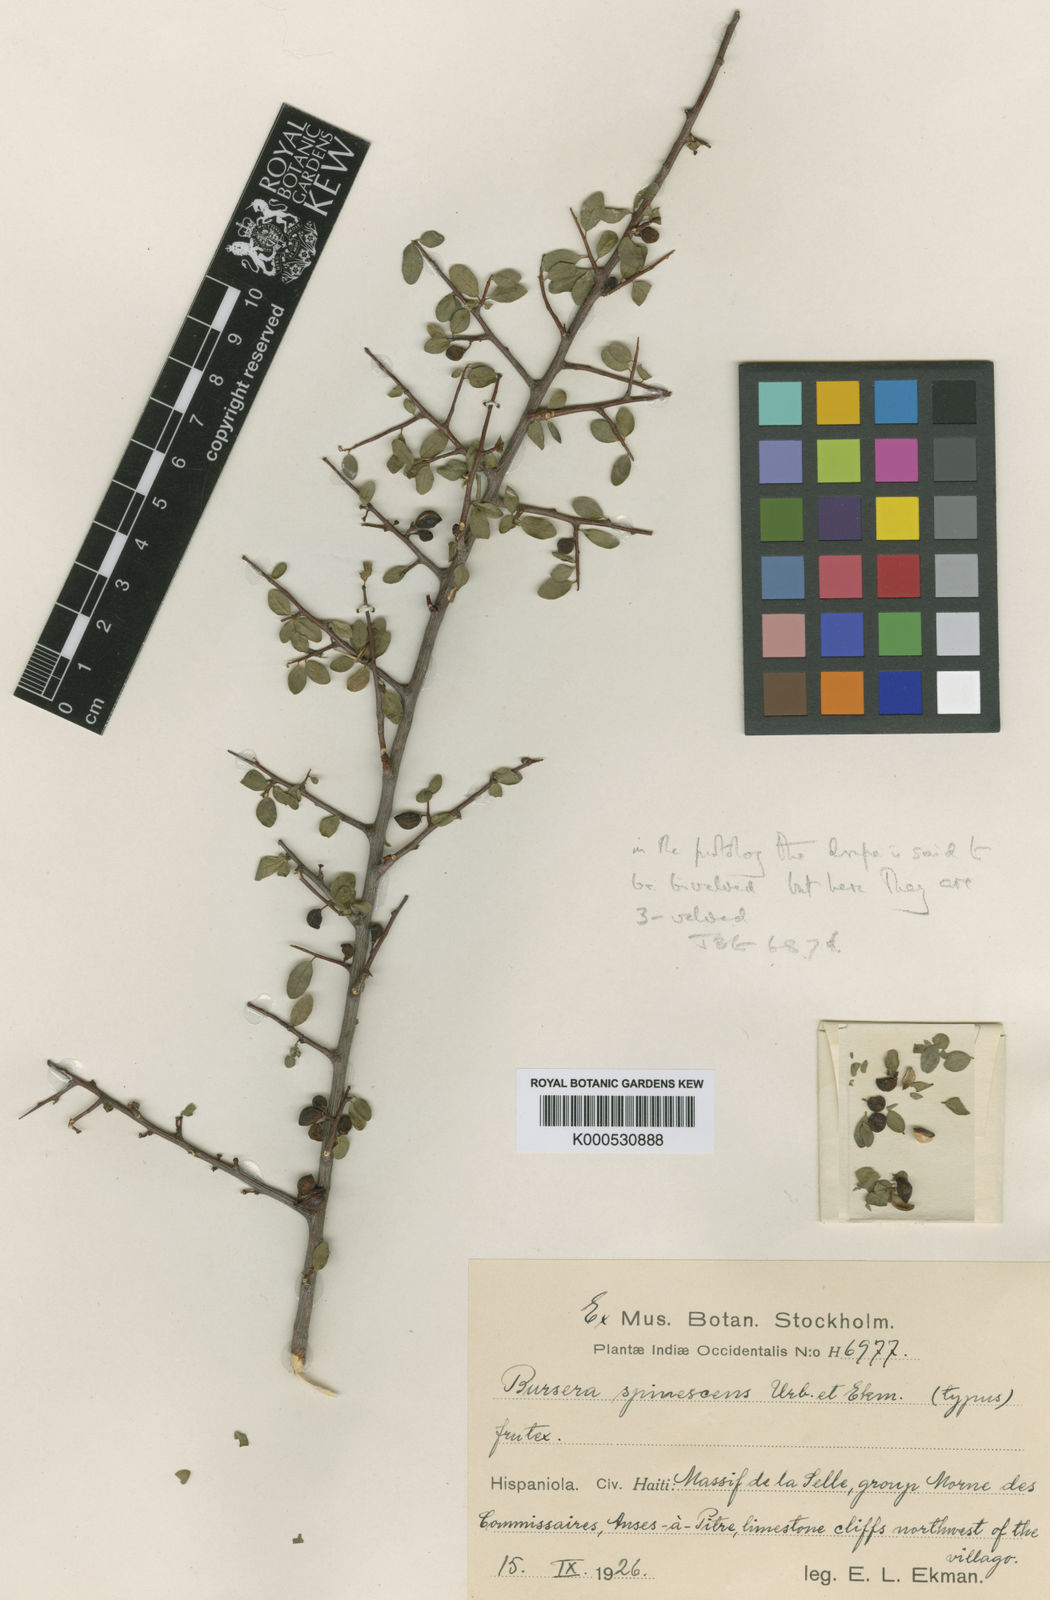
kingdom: Plantae
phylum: Tracheophyta
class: Magnoliopsida
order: Sapindales
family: Burseraceae
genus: Bursera
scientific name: Bursera spinescens
